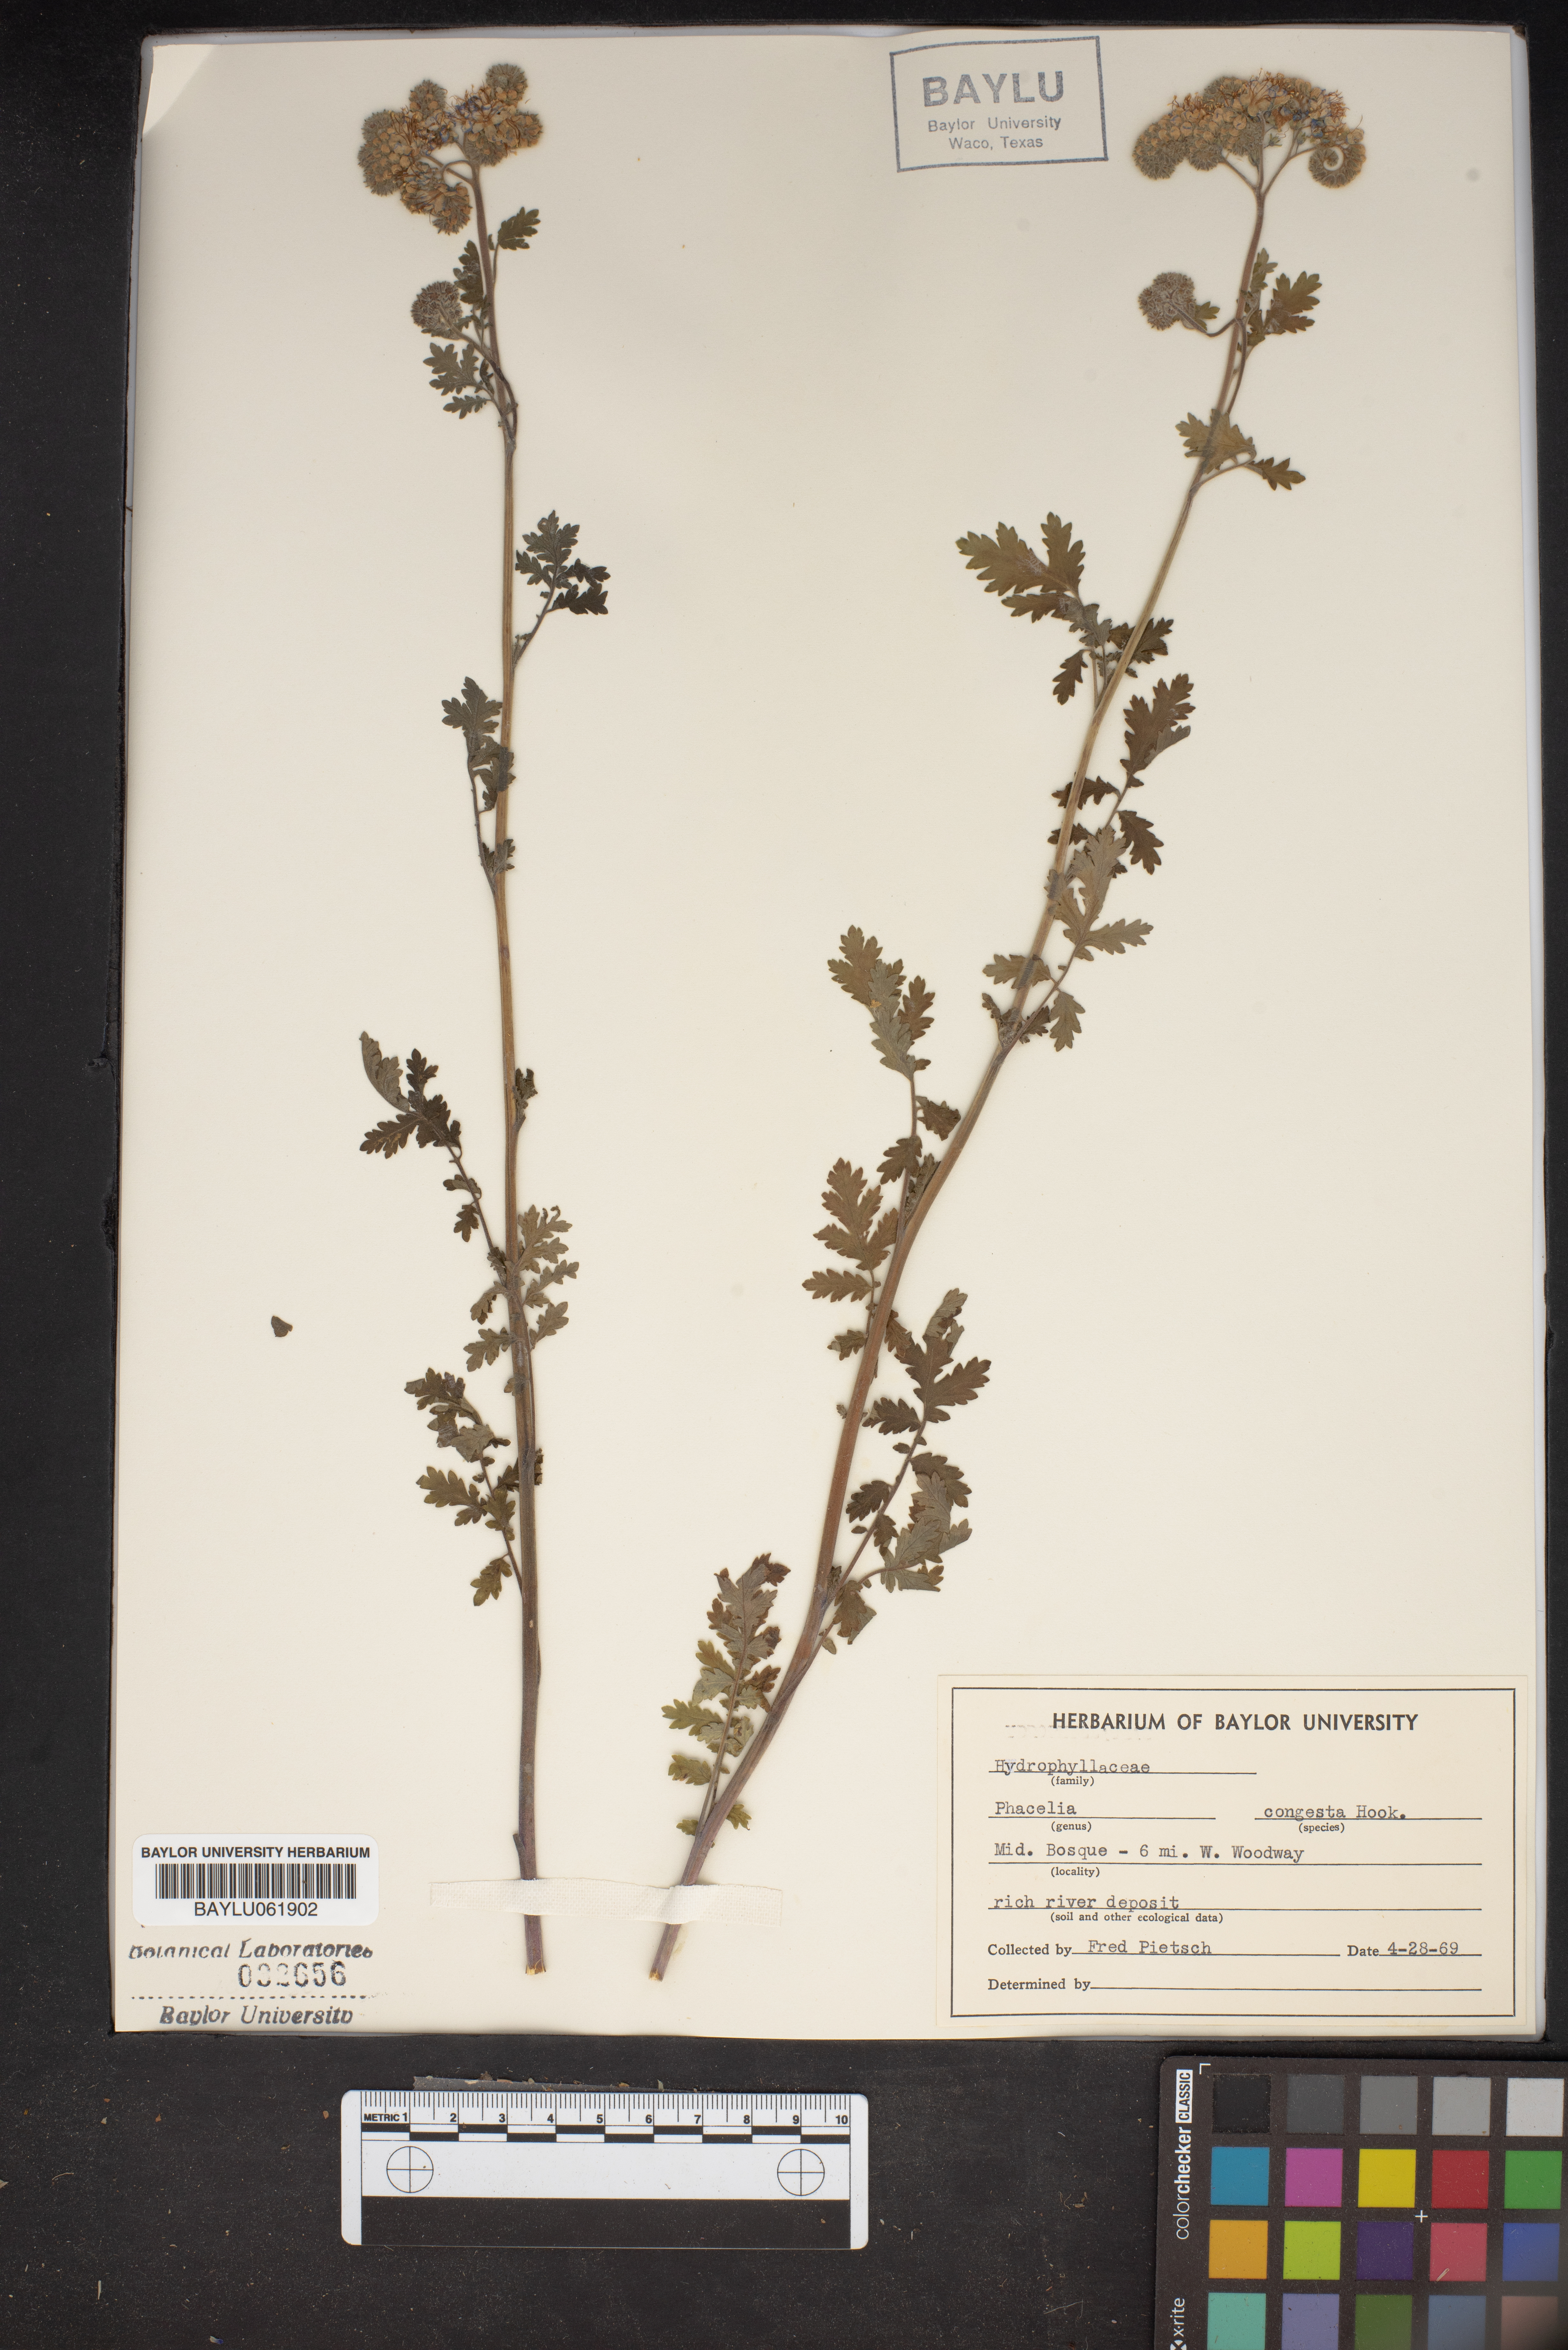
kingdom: Plantae
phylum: Tracheophyta
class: Magnoliopsida
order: Boraginales
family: Hydrophyllaceae
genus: Phacelia
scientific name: Phacelia congesta
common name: Blue curls
